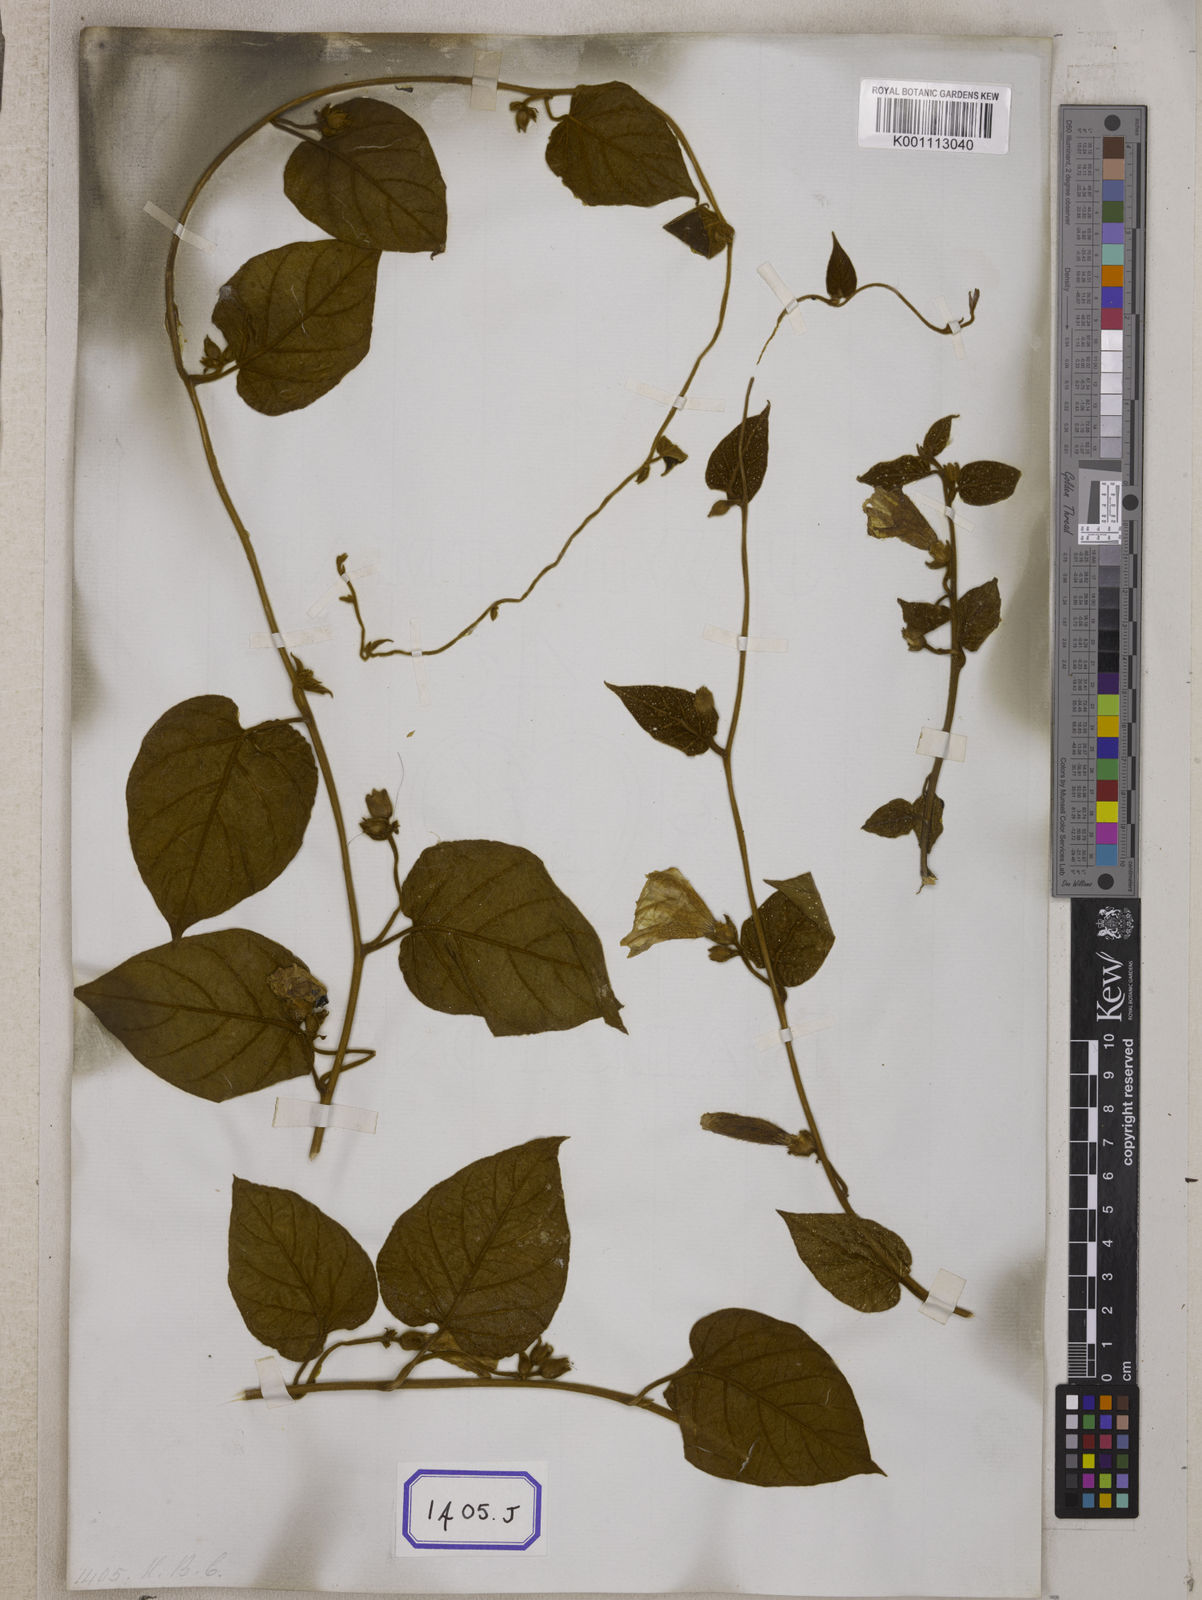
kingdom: Plantae
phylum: Tracheophyta
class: Magnoliopsida
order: Solanales
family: Convolvulaceae
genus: Bonamia
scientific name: Bonamia semidigyna
